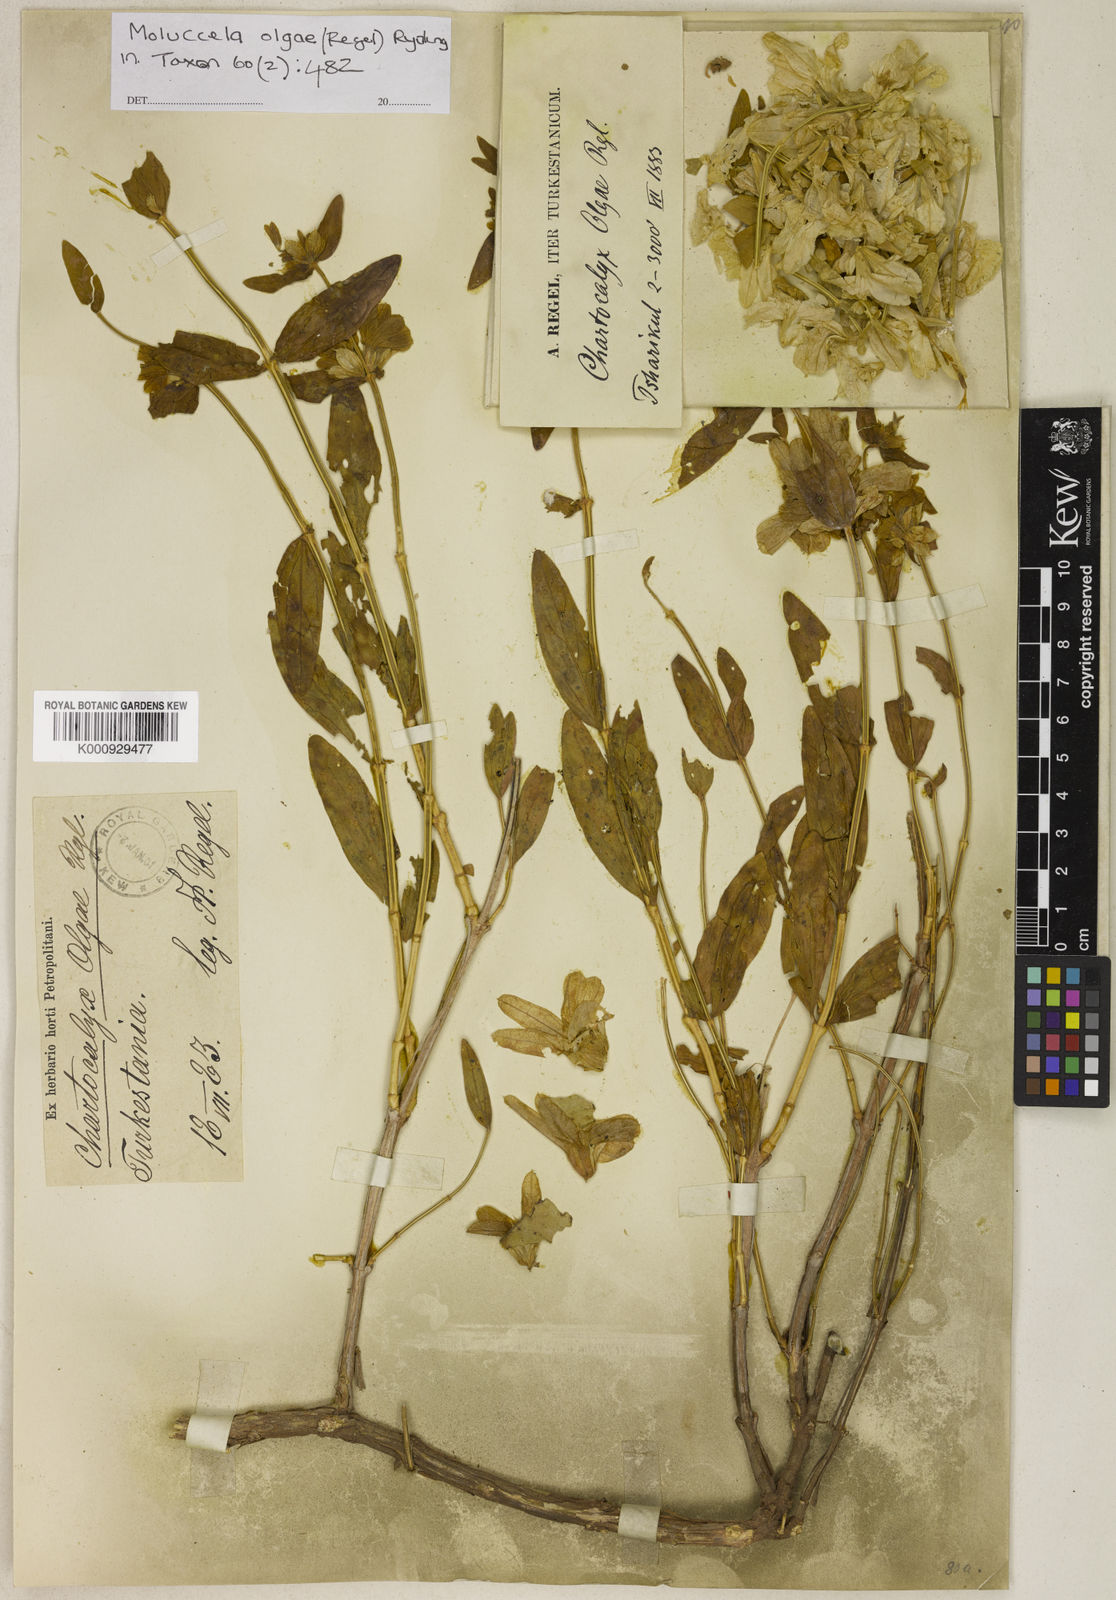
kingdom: Plantae
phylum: Tracheophyta
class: Magnoliopsida
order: Lamiales
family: Lamiaceae
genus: Moluccella
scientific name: Moluccella olgae
